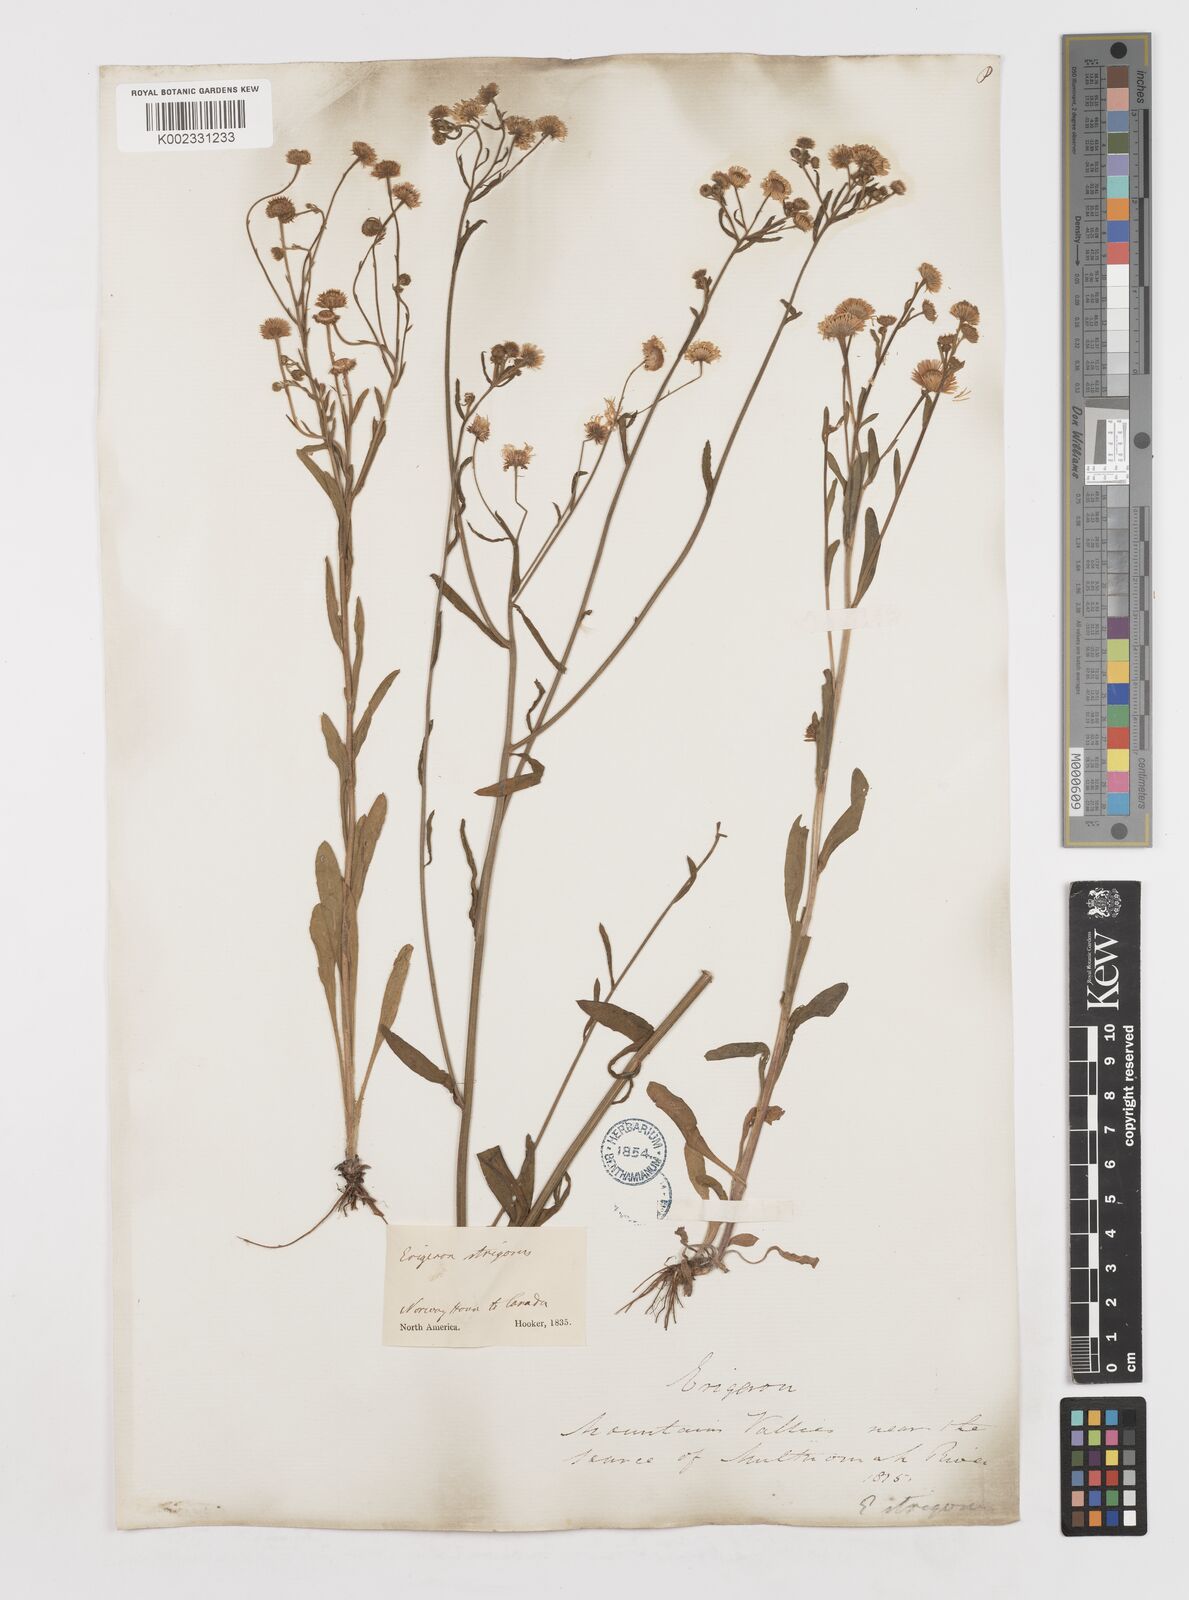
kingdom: Plantae
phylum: Tracheophyta
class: Magnoliopsida
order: Asterales
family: Asteraceae
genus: Erigeron
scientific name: Erigeron strigosus
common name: Common eastern fleabane
